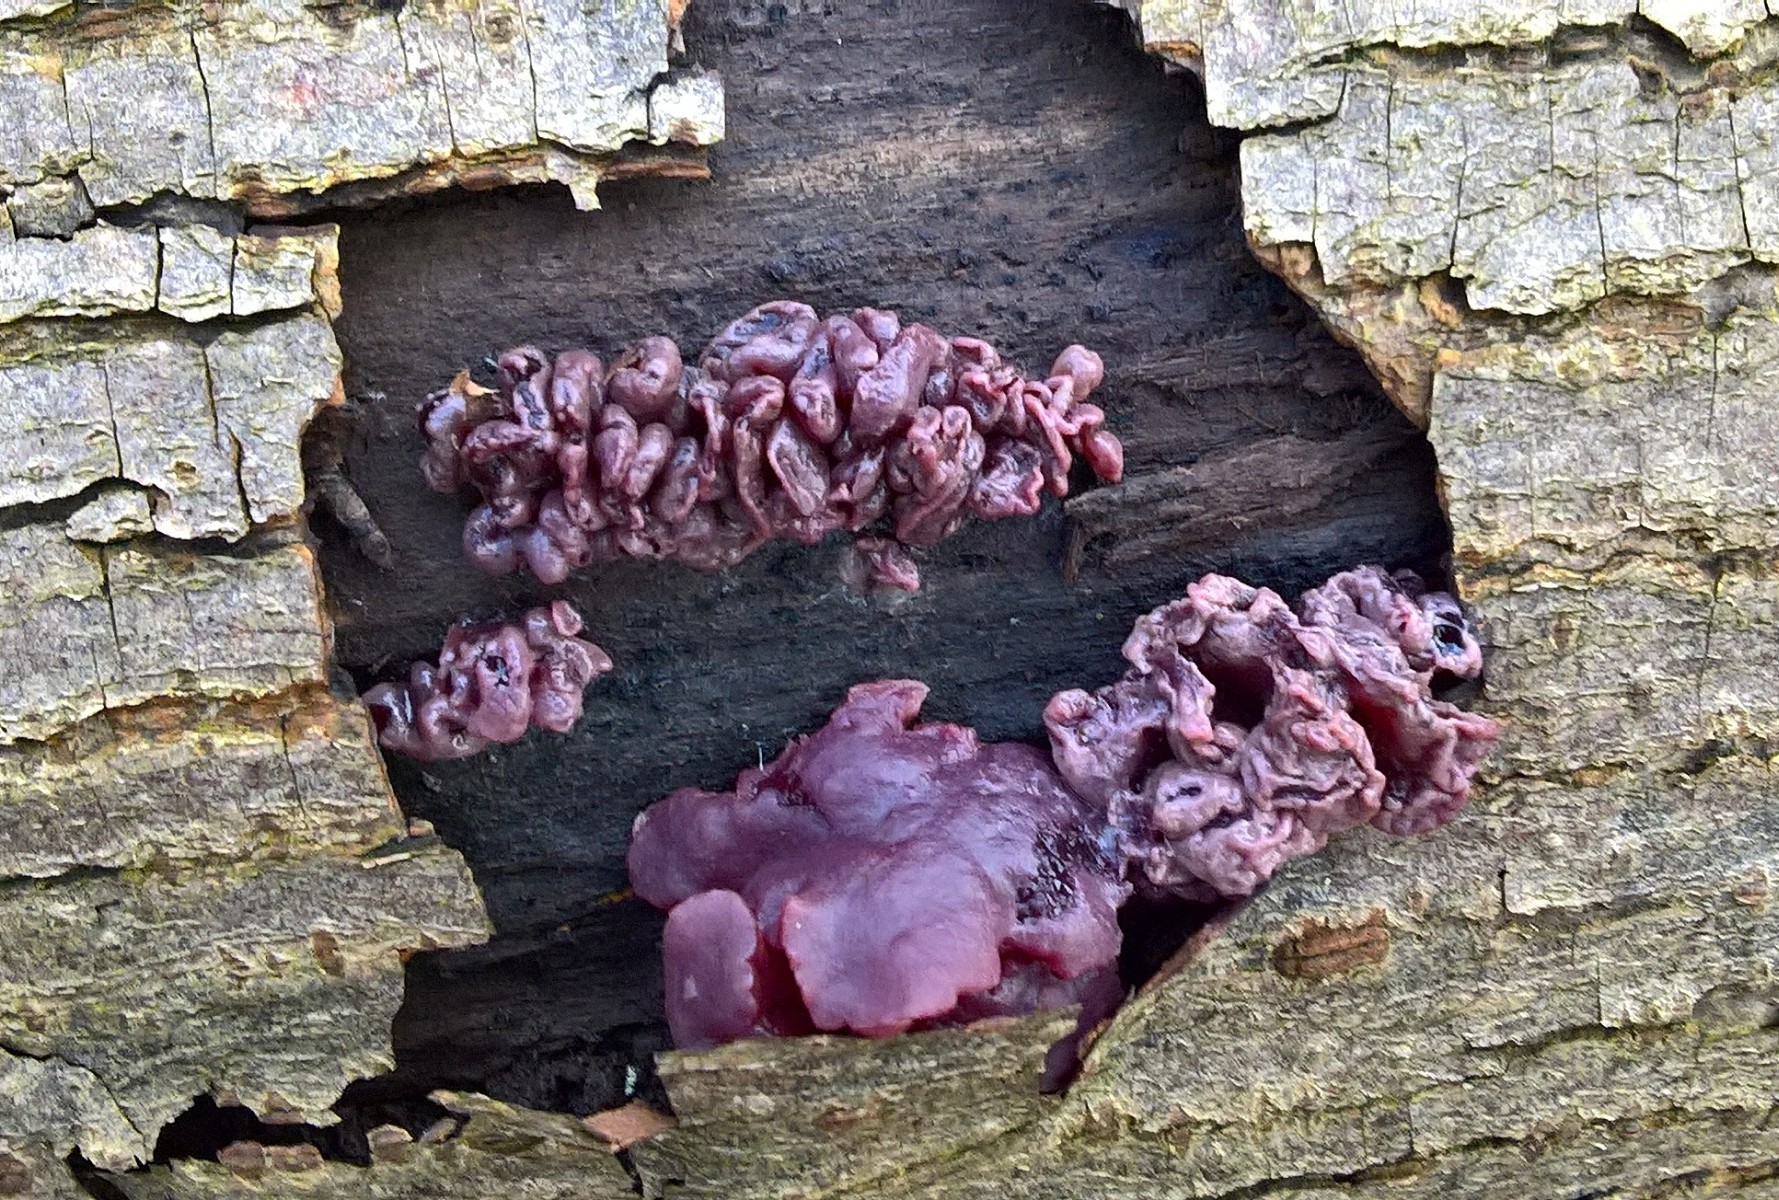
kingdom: Fungi
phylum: Ascomycota
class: Leotiomycetes
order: Helotiales
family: Gelatinodiscaceae
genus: Ascocoryne
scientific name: Ascocoryne sarcoides
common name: rødlilla sejskive
